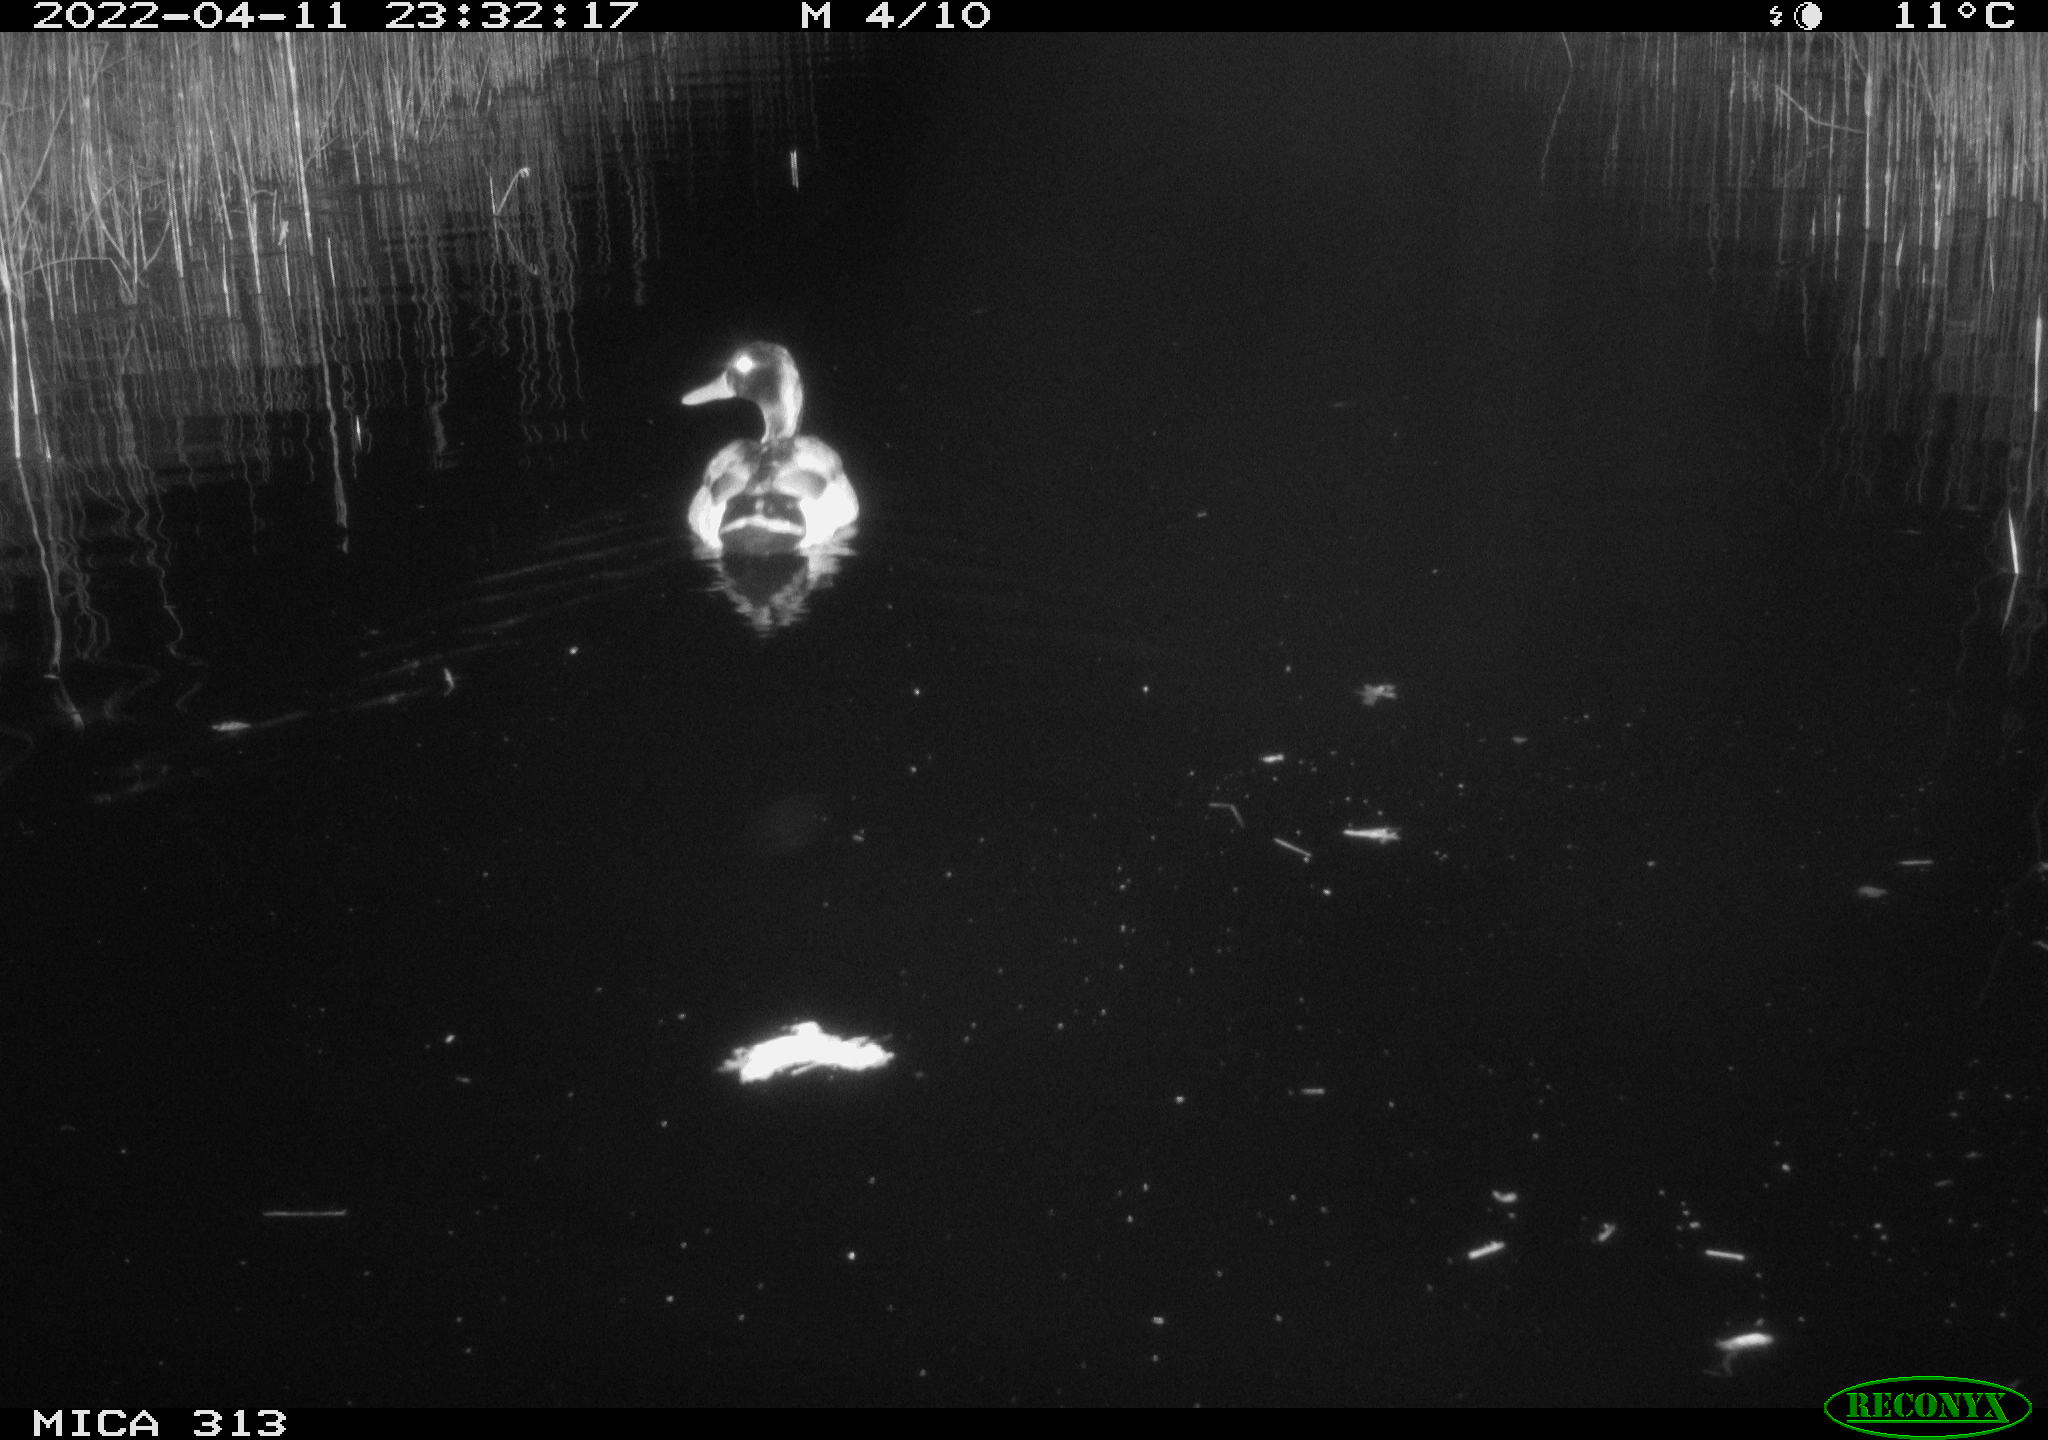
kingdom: Animalia
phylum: Chordata
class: Aves
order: Anseriformes
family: Anatidae
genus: Anas
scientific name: Anas platyrhynchos
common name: Mallard
